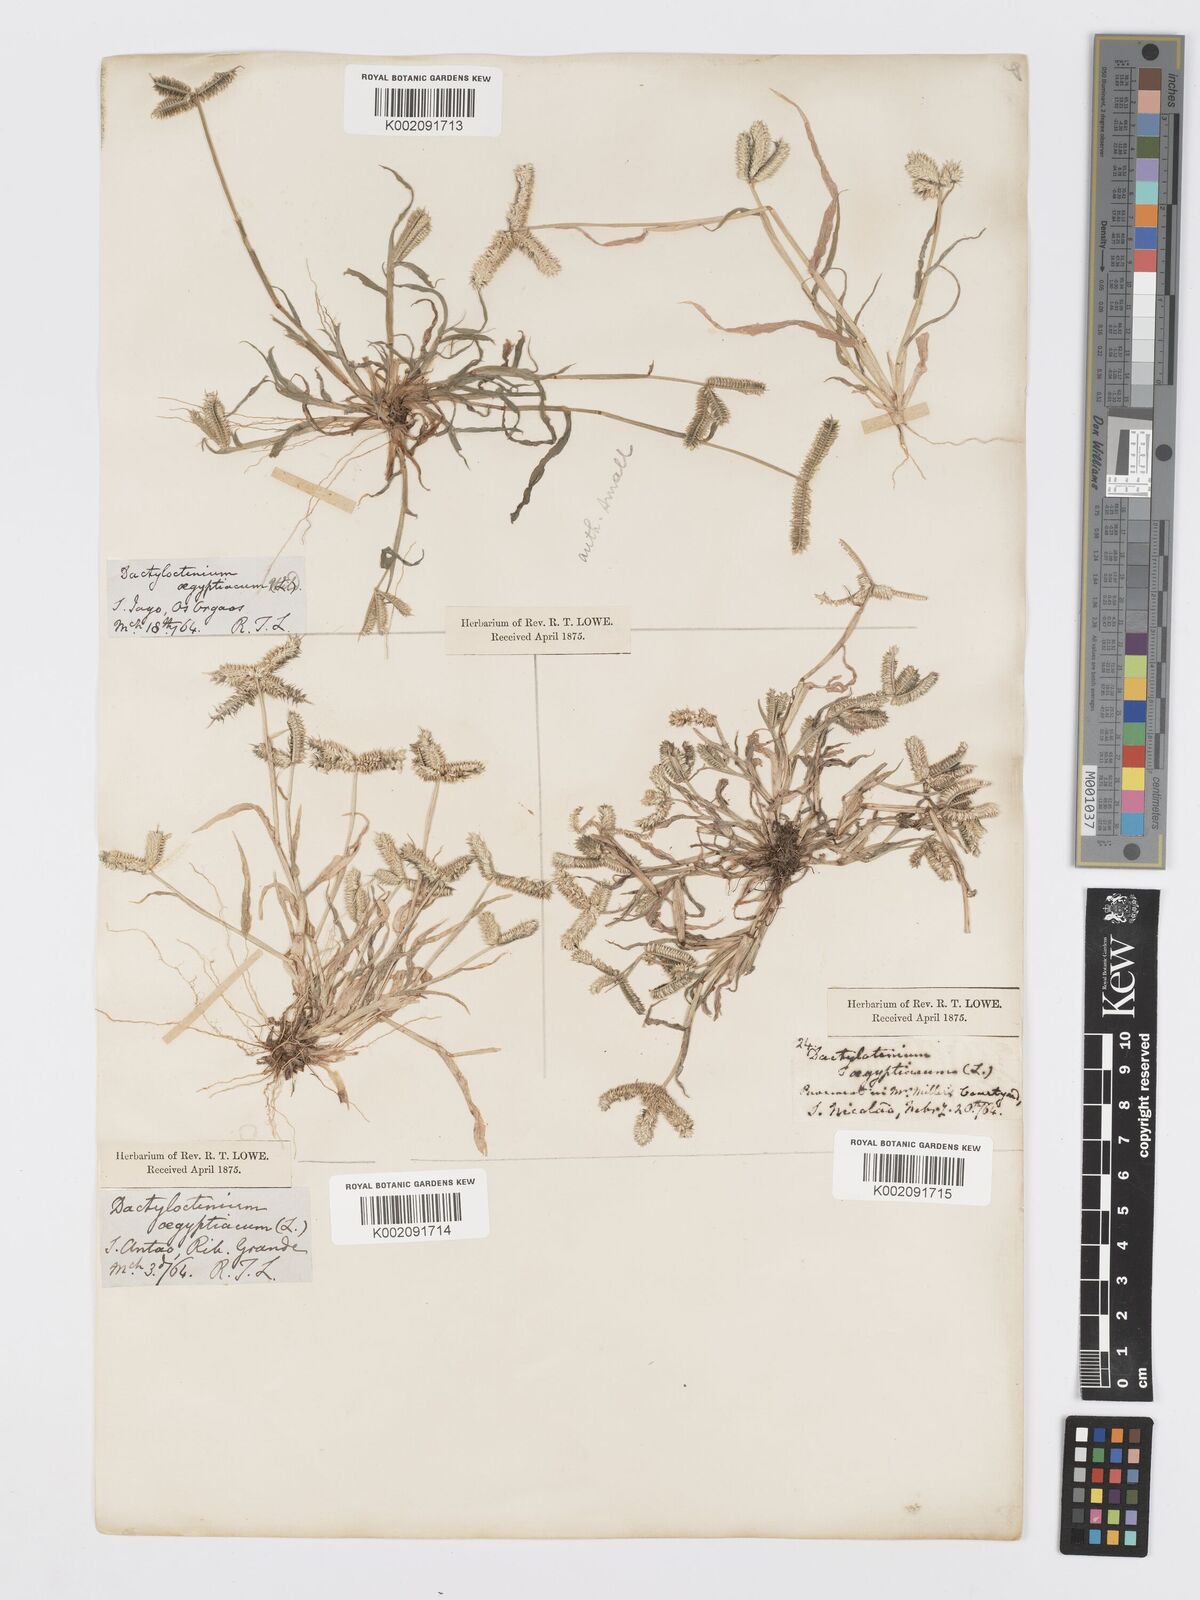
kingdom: Plantae
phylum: Tracheophyta
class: Liliopsida
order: Poales
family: Poaceae
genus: Dactyloctenium
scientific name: Dactyloctenium aegyptium
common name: Egyptian grass
